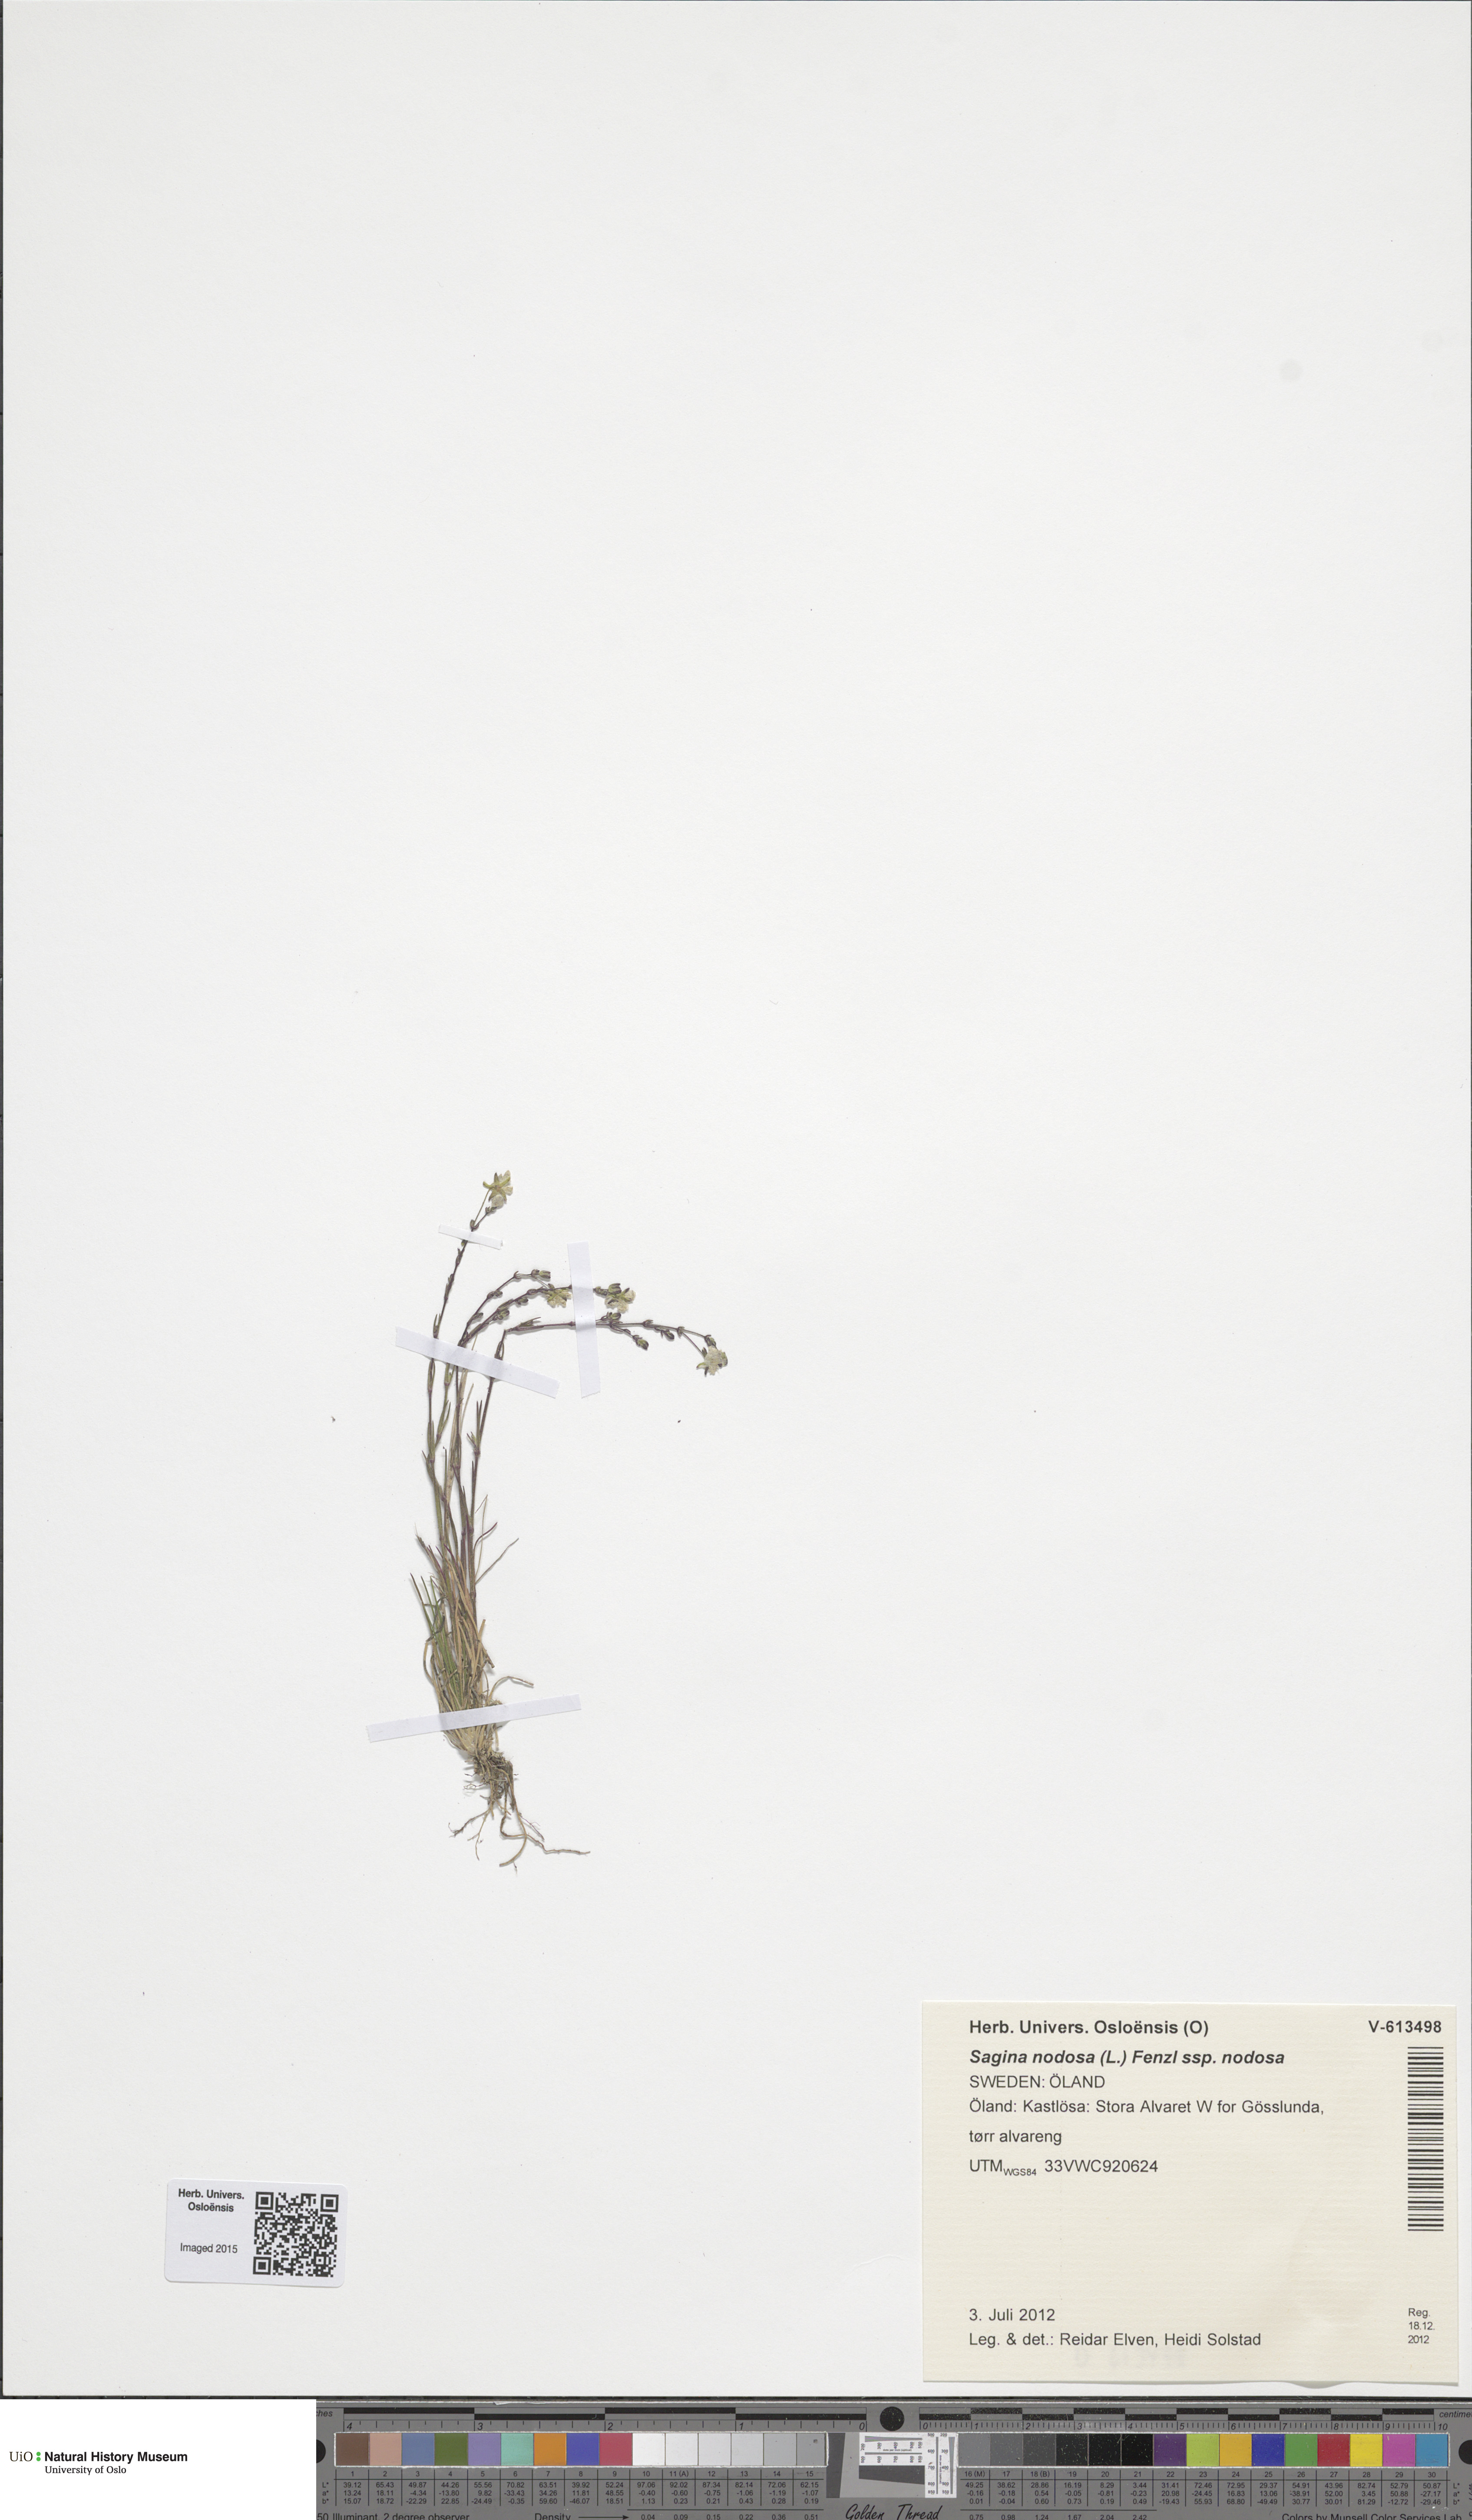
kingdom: Plantae
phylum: Tracheophyta
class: Magnoliopsida
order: Caryophyllales
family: Caryophyllaceae
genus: Sagina
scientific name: Sagina nodosa
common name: Knotted pearlwort
